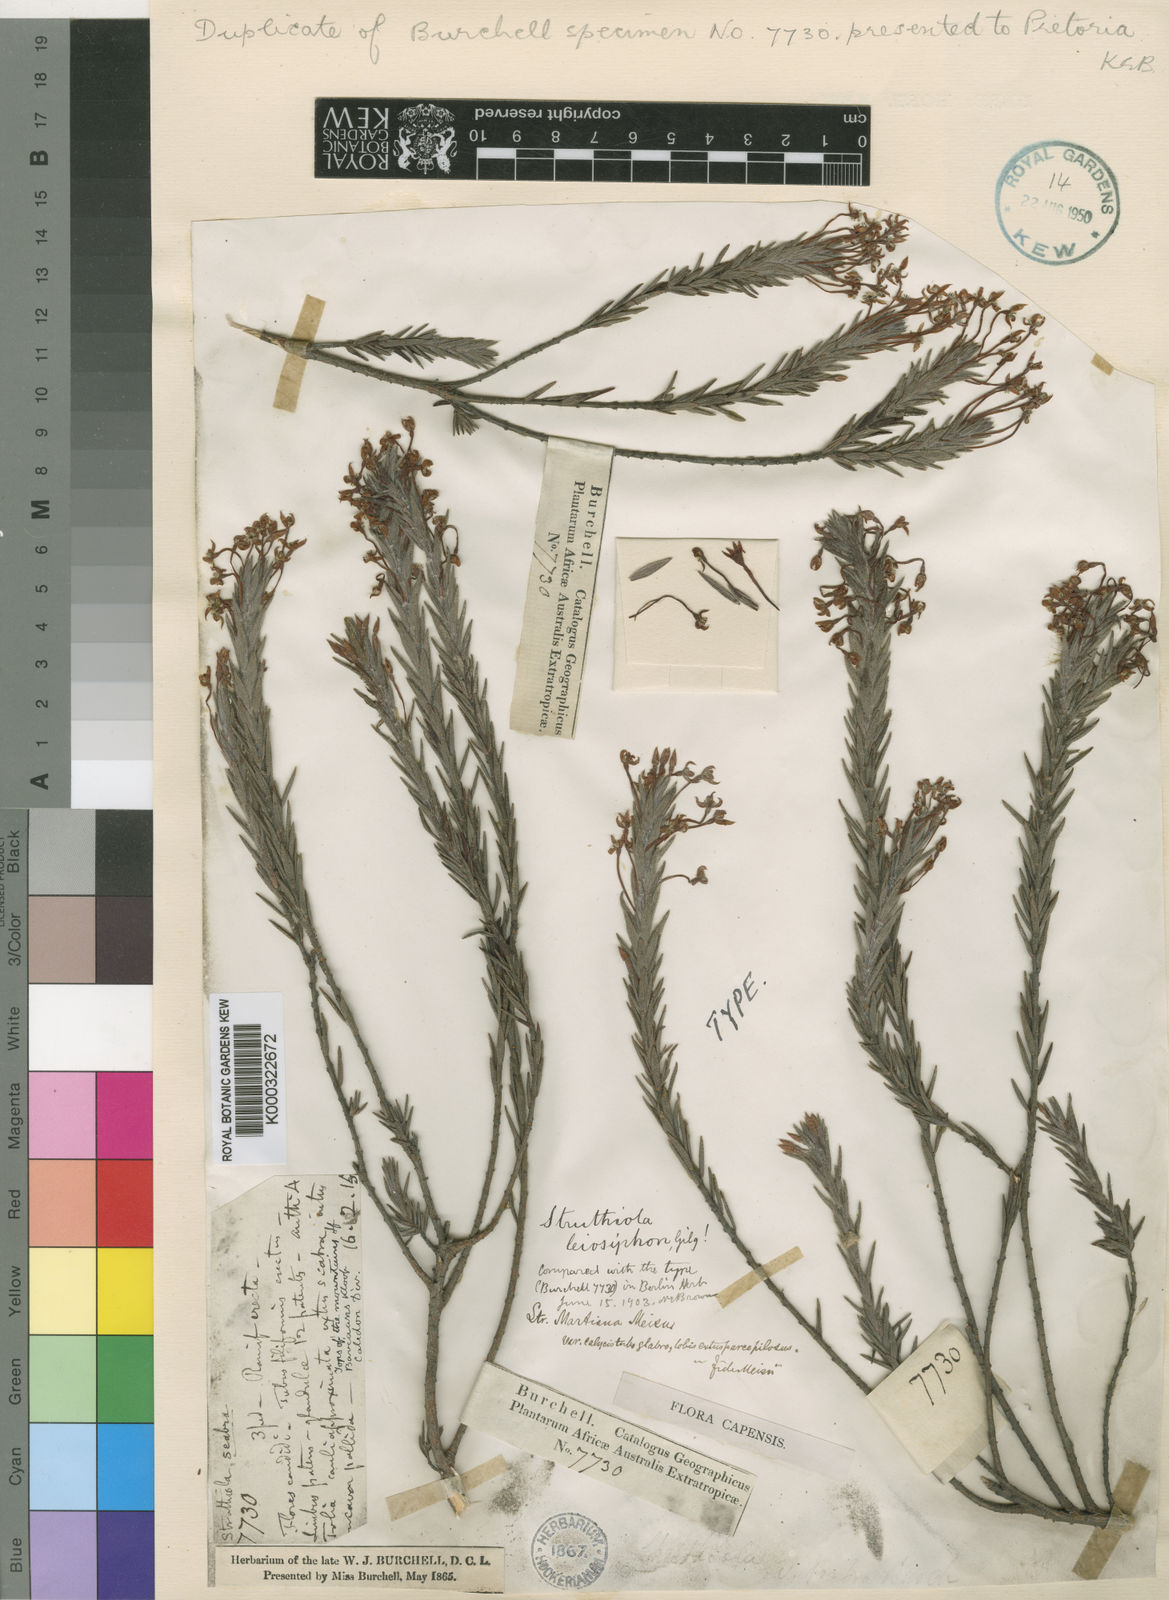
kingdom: Plantae
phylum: Tracheophyta
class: Magnoliopsida
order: Malvales
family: Thymelaeaceae
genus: Struthiola
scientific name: Struthiola martiana
